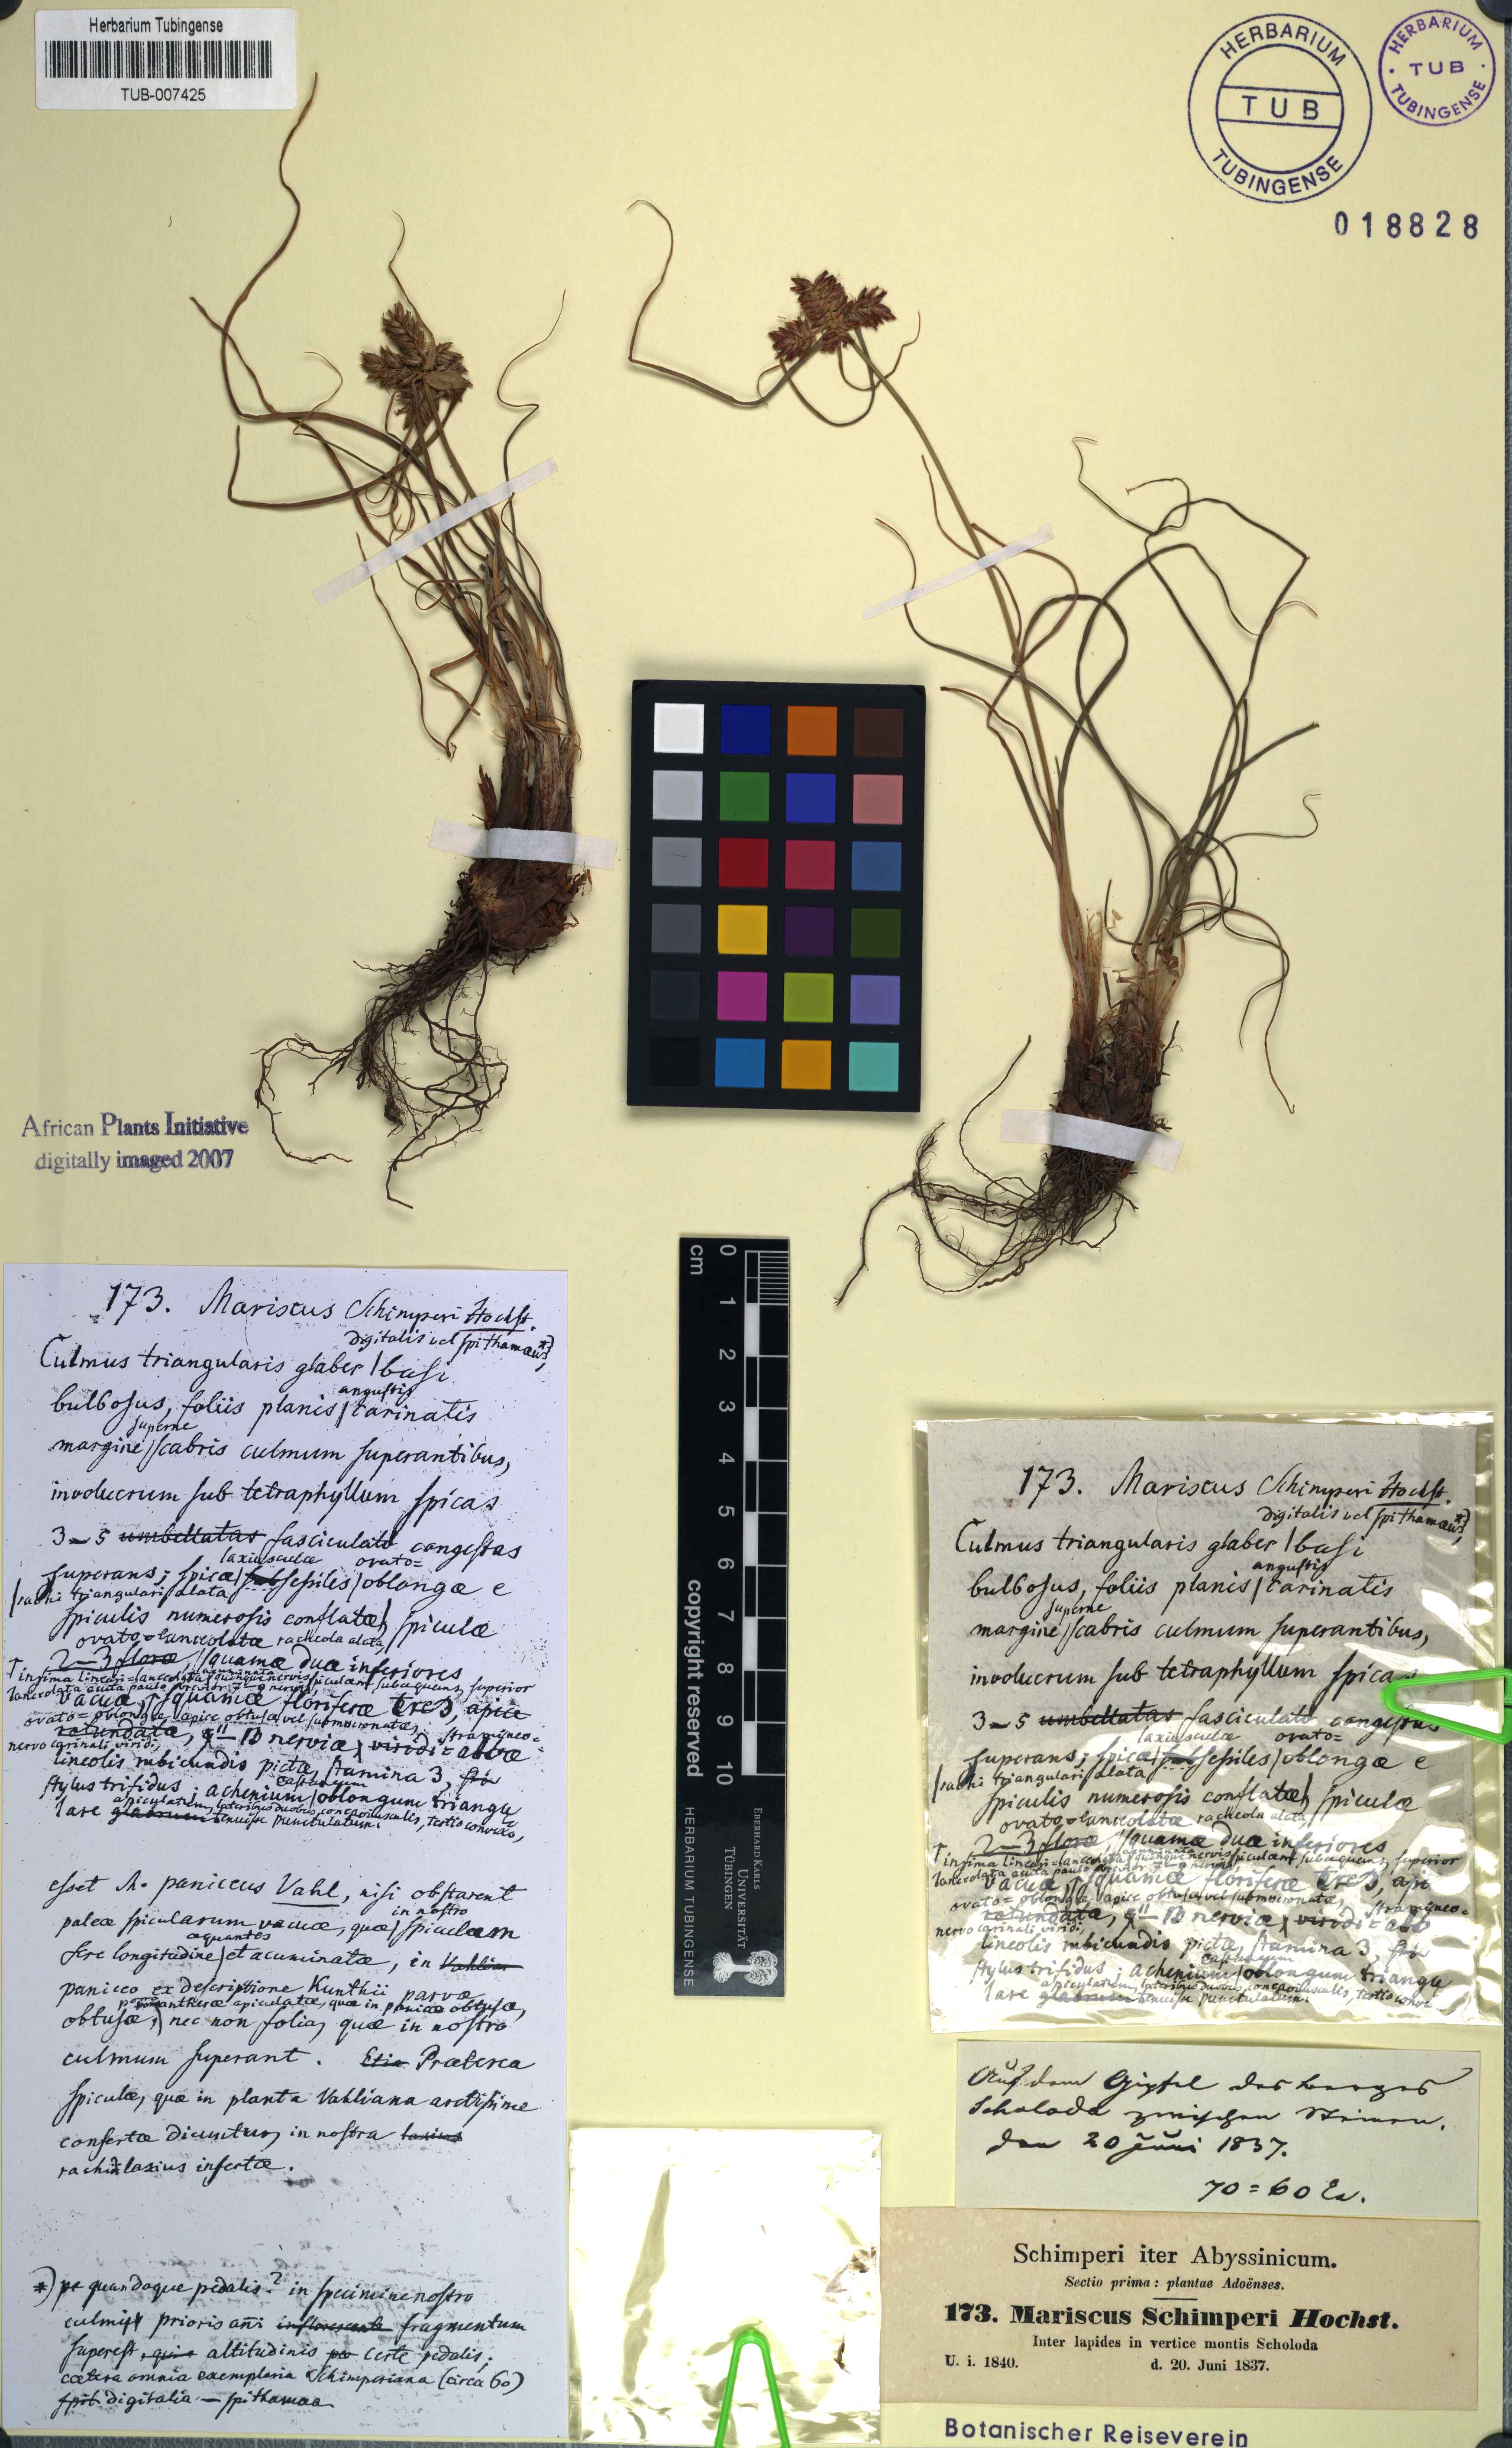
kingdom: Plantae
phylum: Tracheophyta
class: Liliopsida
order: Poales
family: Cyperaceae
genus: Cladium
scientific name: Cladium Mariscus schimperi
